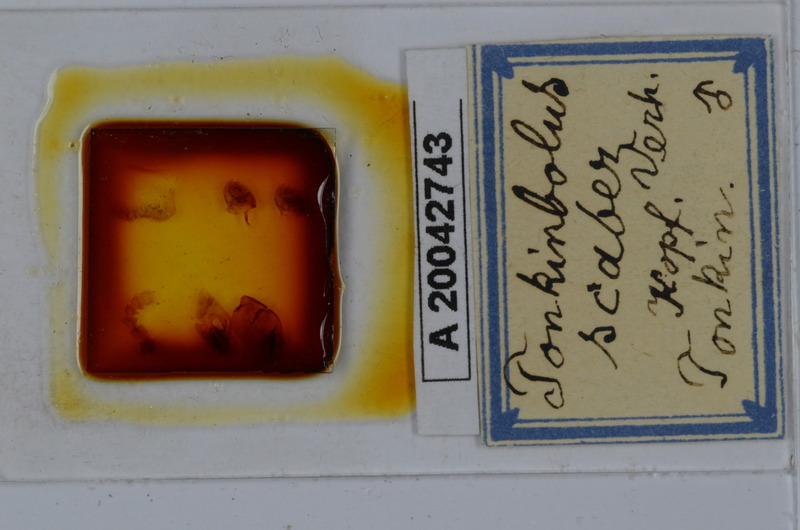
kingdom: Animalia
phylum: Arthropoda
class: Diplopoda
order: Spirobolida
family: Pachybolidae
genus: Litostrophus
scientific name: Litostrophus scaber
